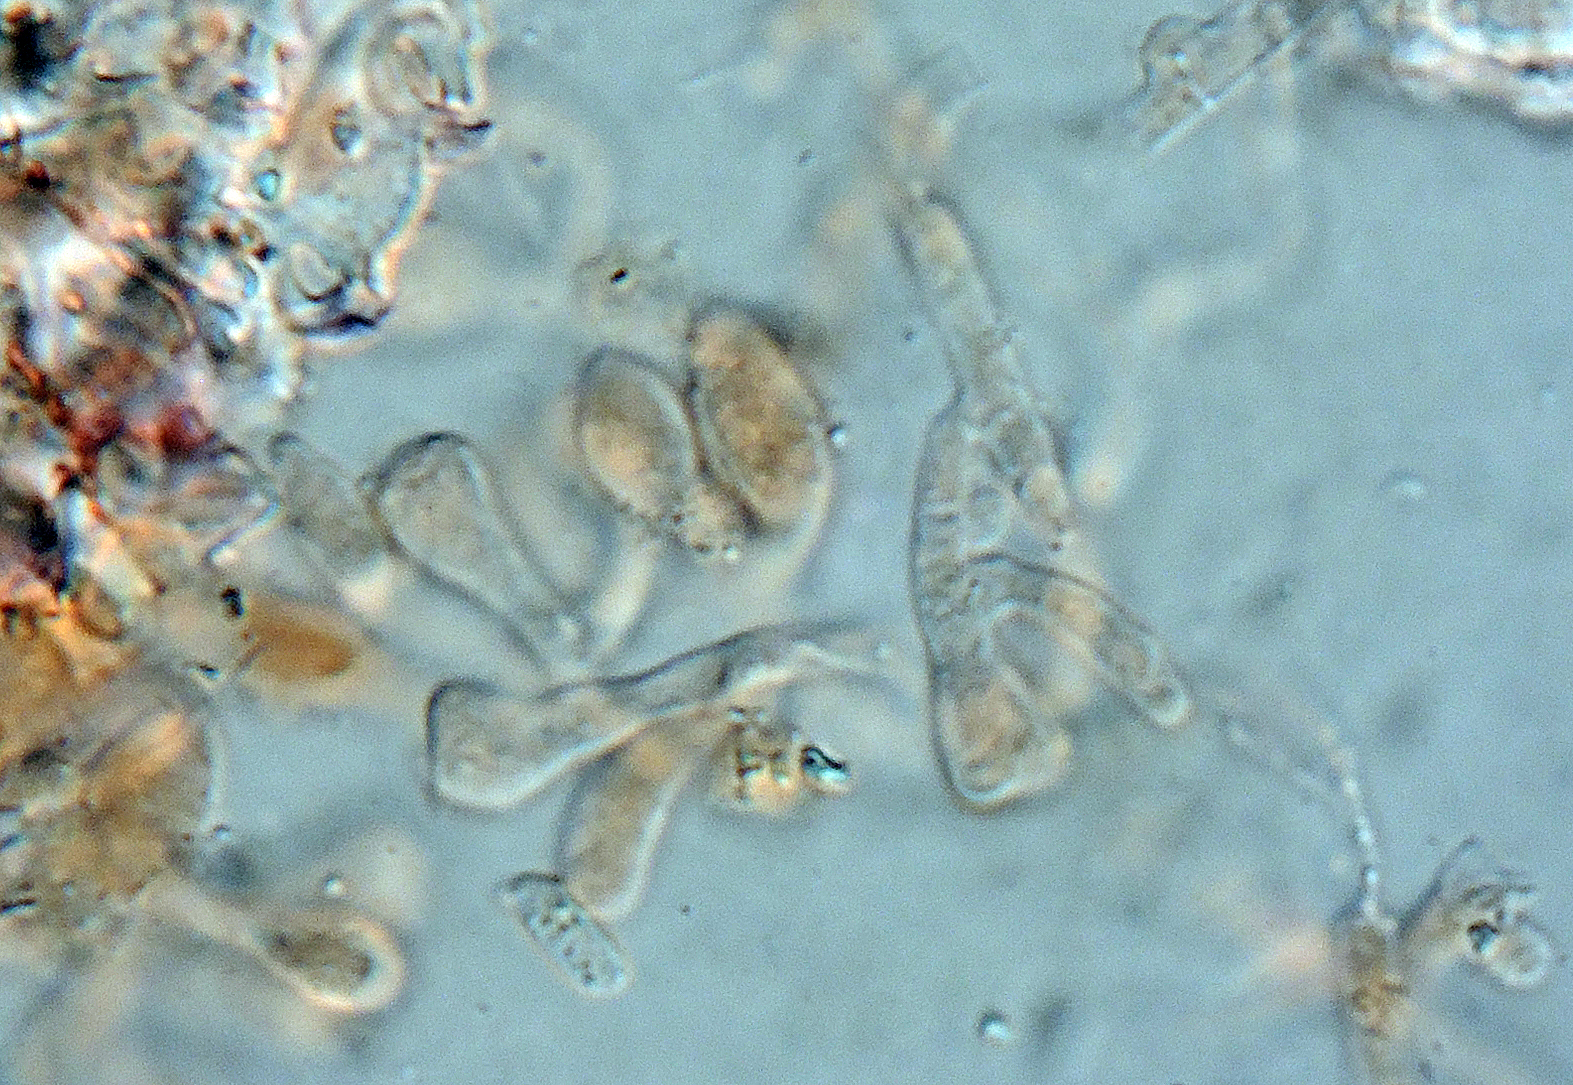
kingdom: Fungi
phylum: Basidiomycota
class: Agaricomycetes
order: Atheliales
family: Atheliaceae
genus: Athelopsis
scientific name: Athelopsis glaucina
